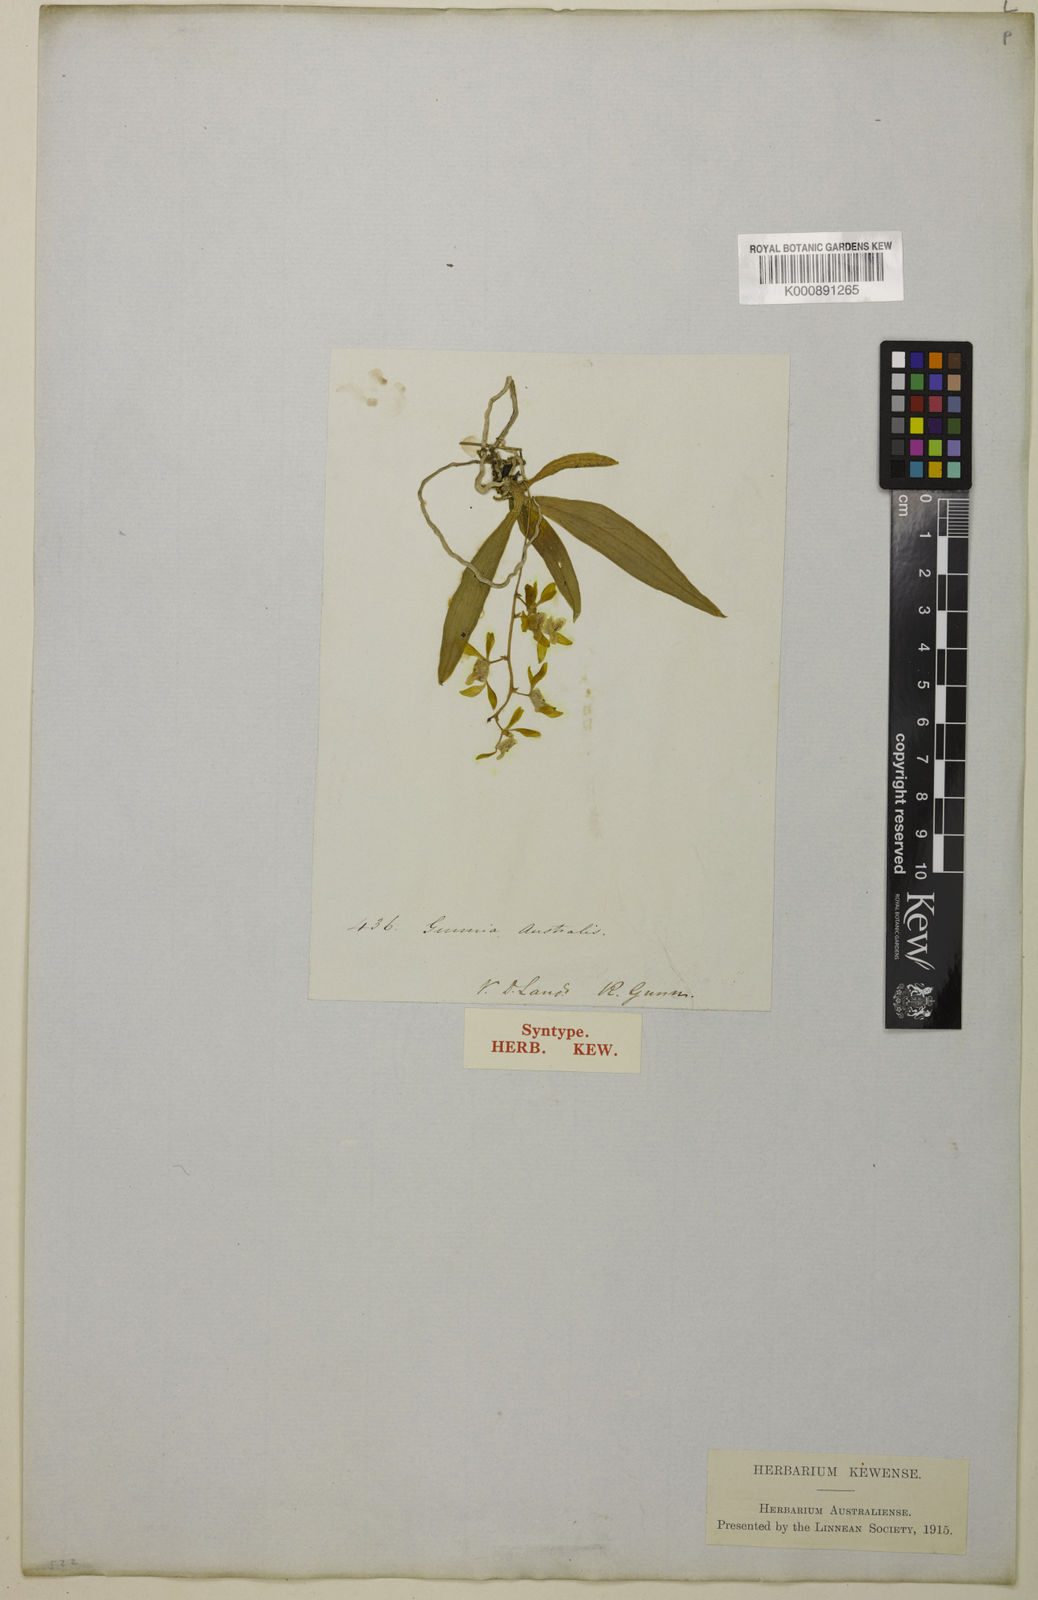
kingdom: Plantae
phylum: Tracheophyta
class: Liliopsida
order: Asparagales
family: Orchidaceae
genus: Sarcochilus
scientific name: Sarcochilus australis
